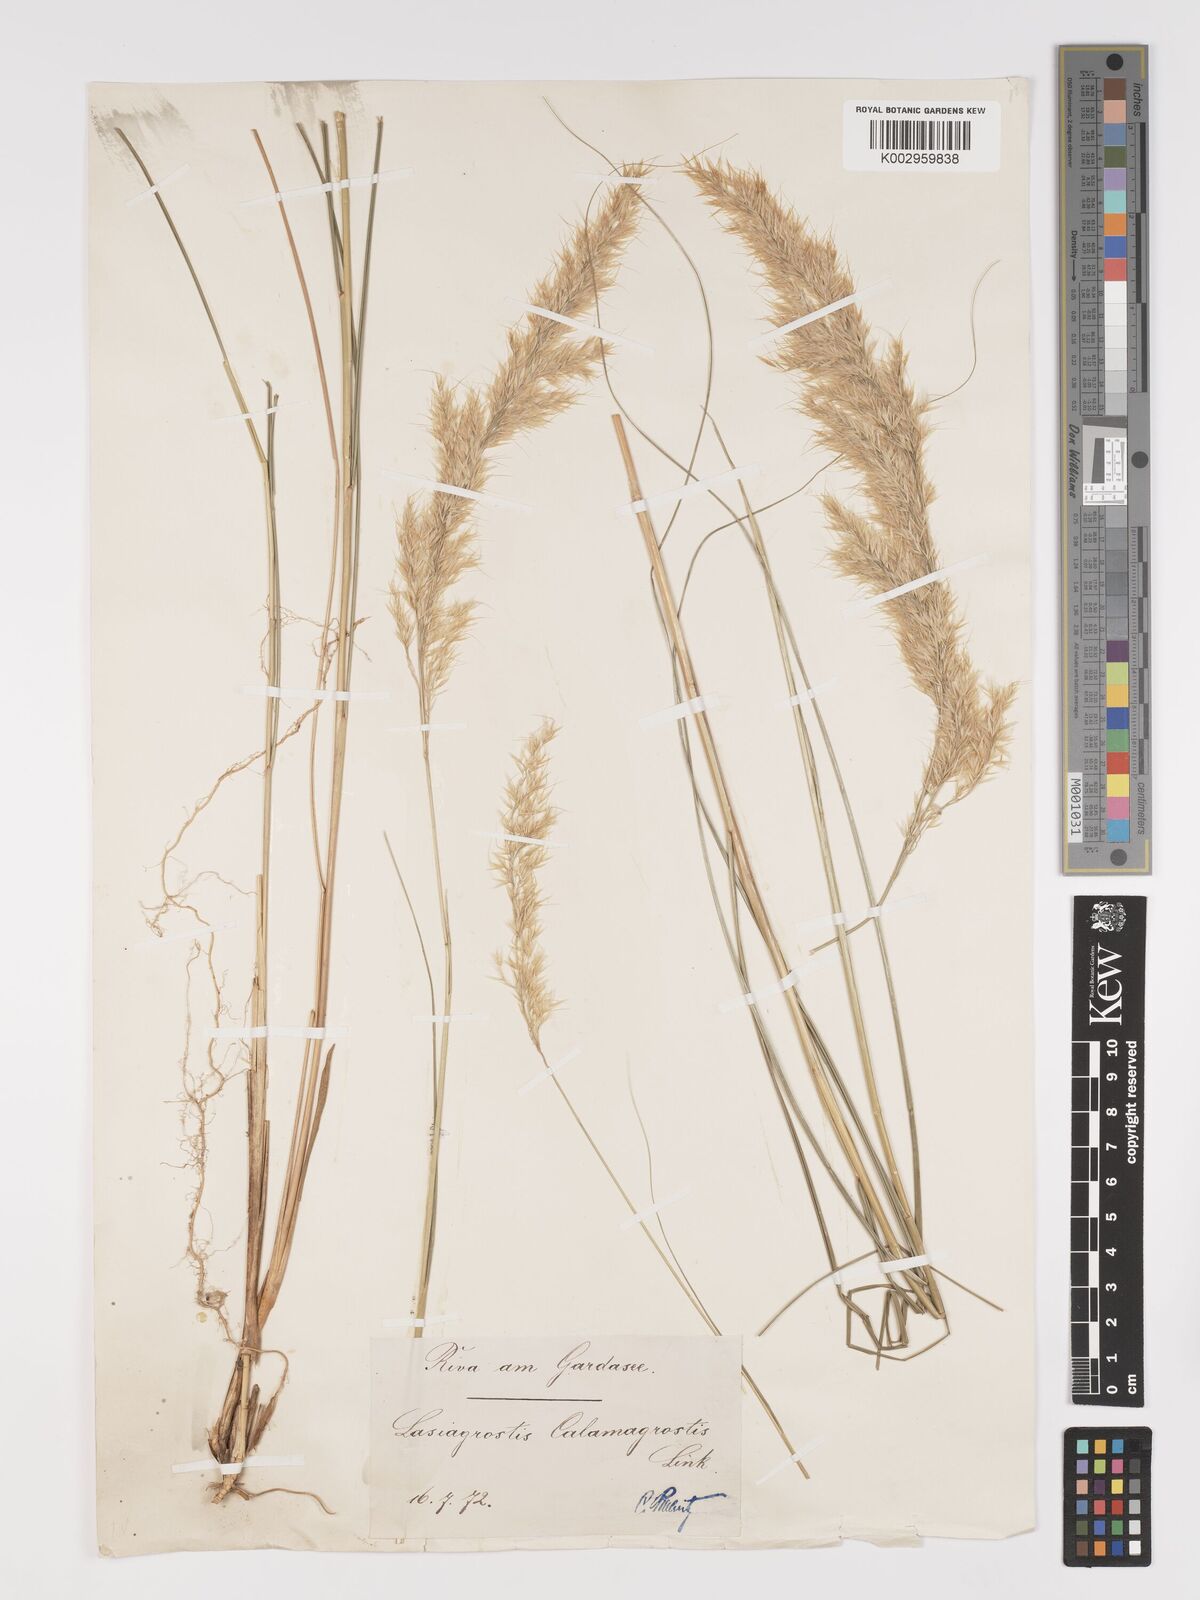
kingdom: Plantae
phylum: Tracheophyta
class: Liliopsida
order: Poales
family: Poaceae
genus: Achnatherum
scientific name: Achnatherum calamagrostis
